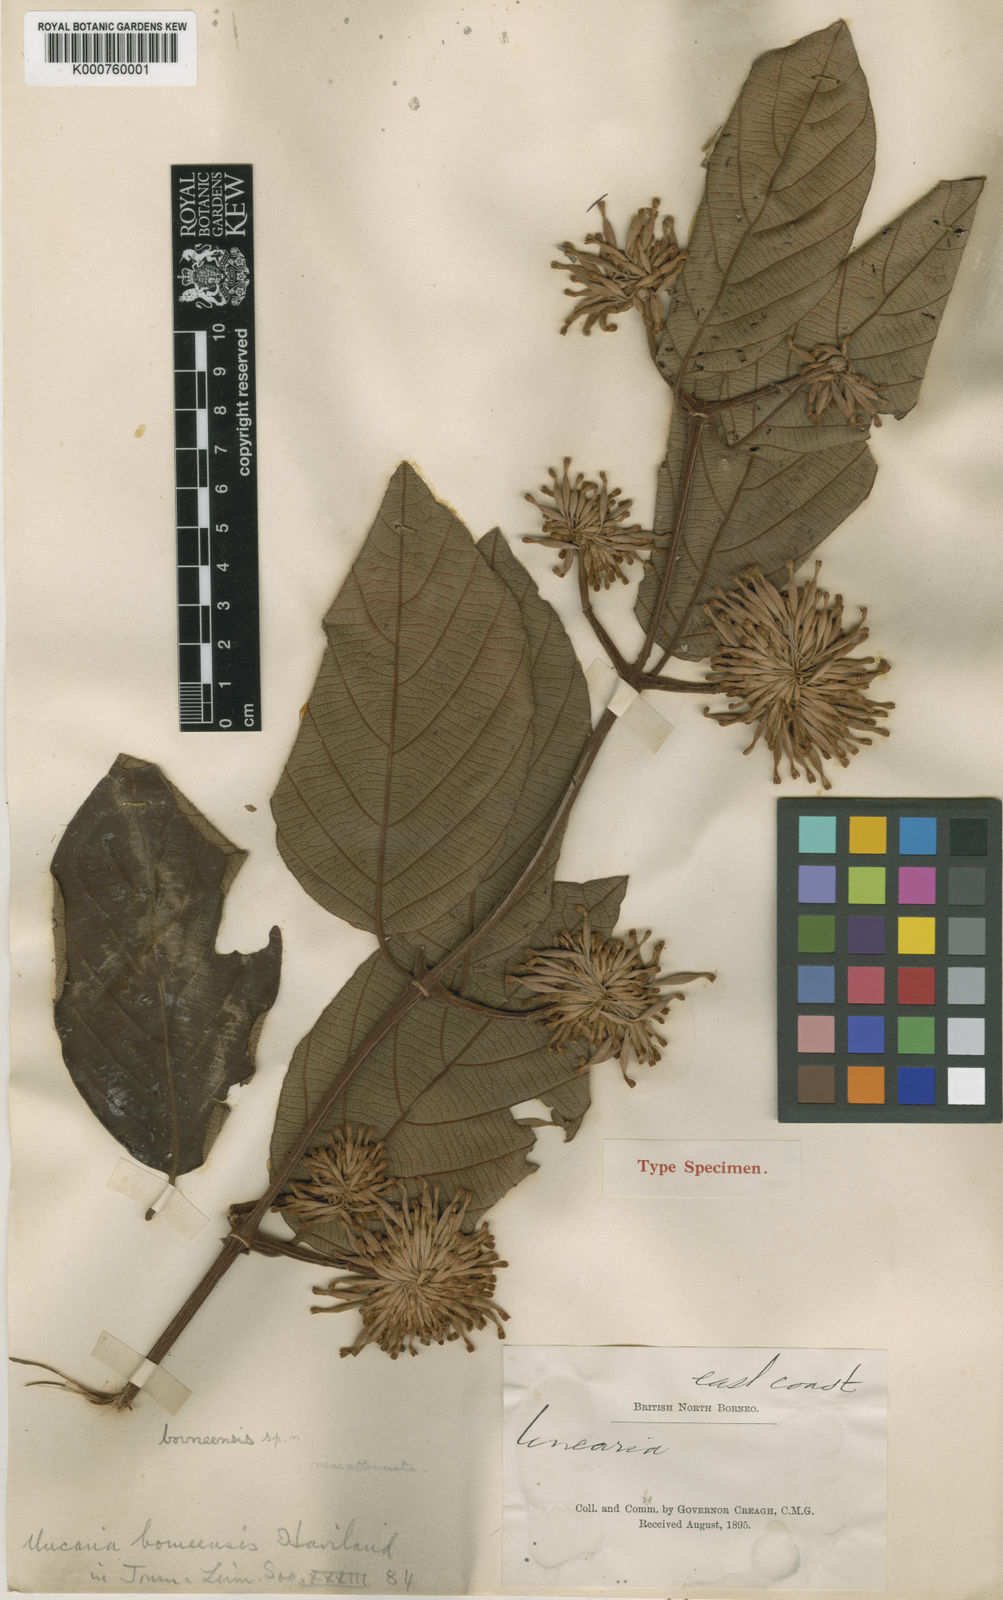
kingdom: Plantae
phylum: Tracheophyta
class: Magnoliopsida
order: Gentianales
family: Rubiaceae
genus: Uncaria
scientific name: Uncaria borneensis
